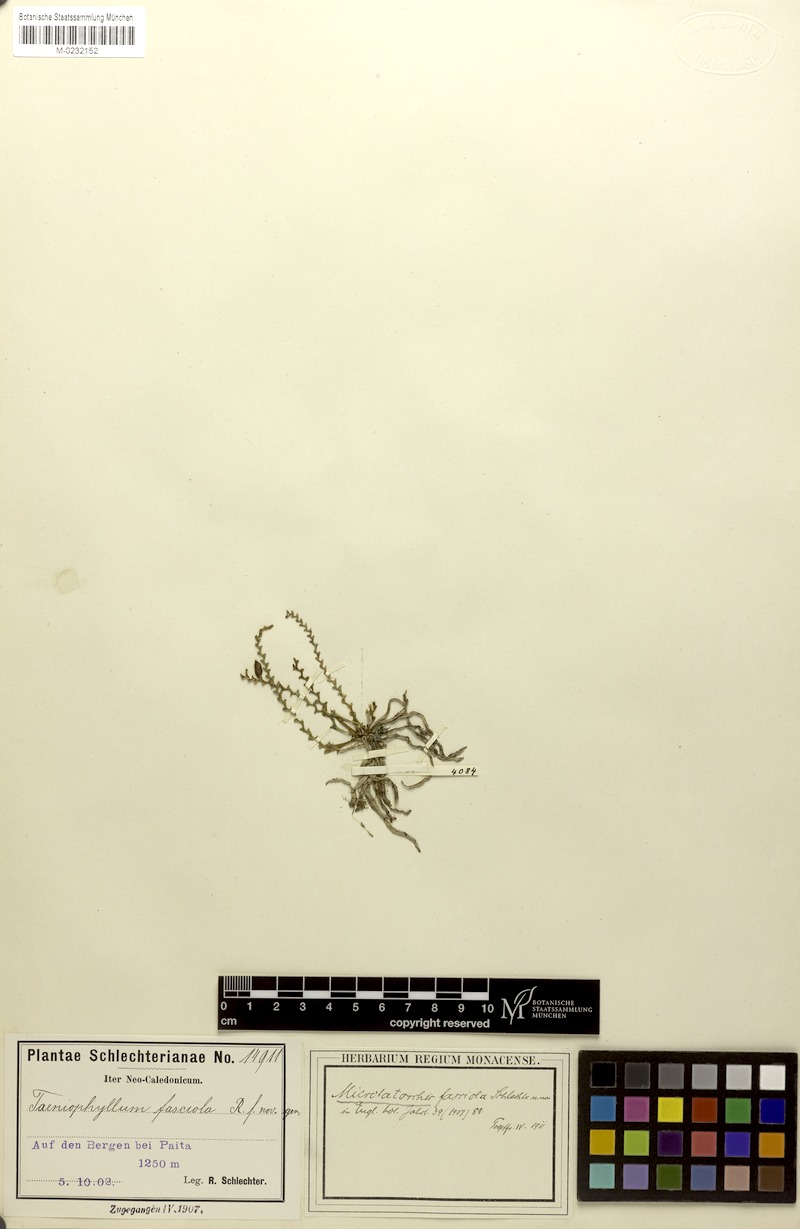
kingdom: Plantae
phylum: Tracheophyta
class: Liliopsida
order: Asparagales
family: Orchidaceae
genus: Taeniophyllum
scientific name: Taeniophyllum rudolfii
